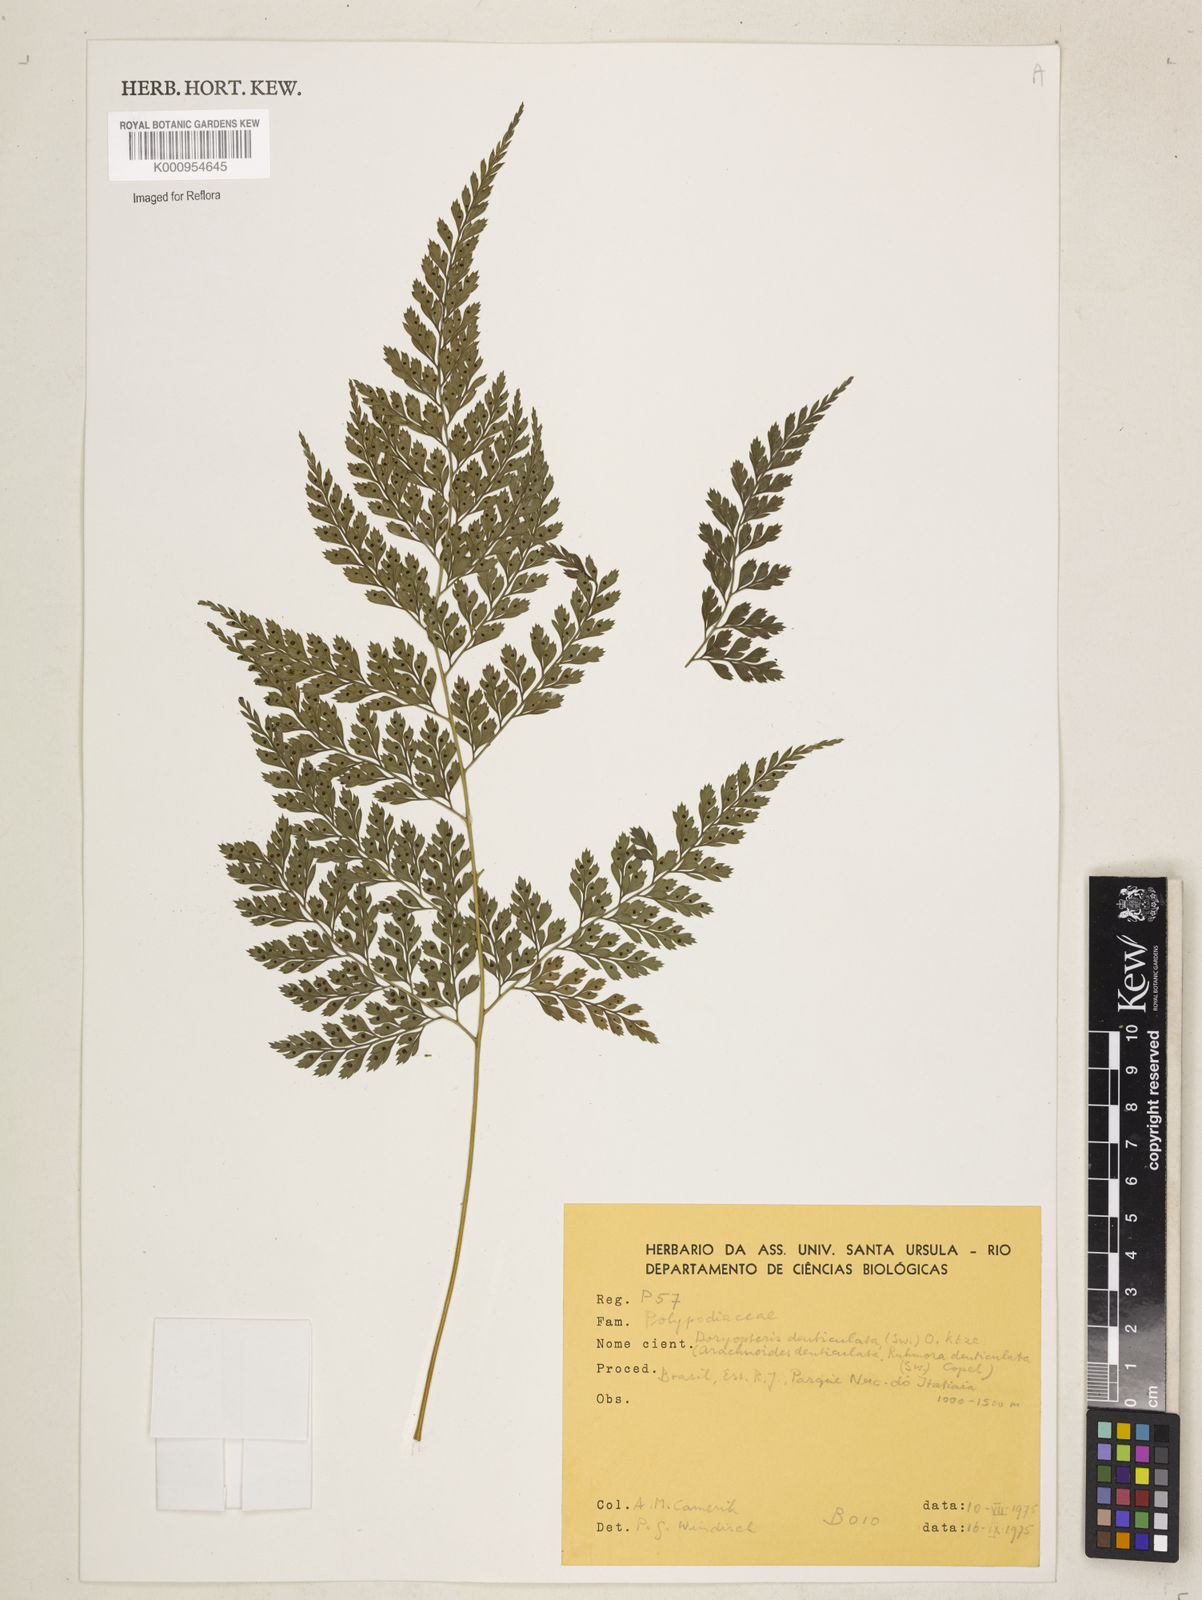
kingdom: Plantae
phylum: Tracheophyta
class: Polypodiopsida
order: Polypodiales
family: Dryopteridaceae
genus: Arachniodes
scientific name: Arachniodes denticulata
